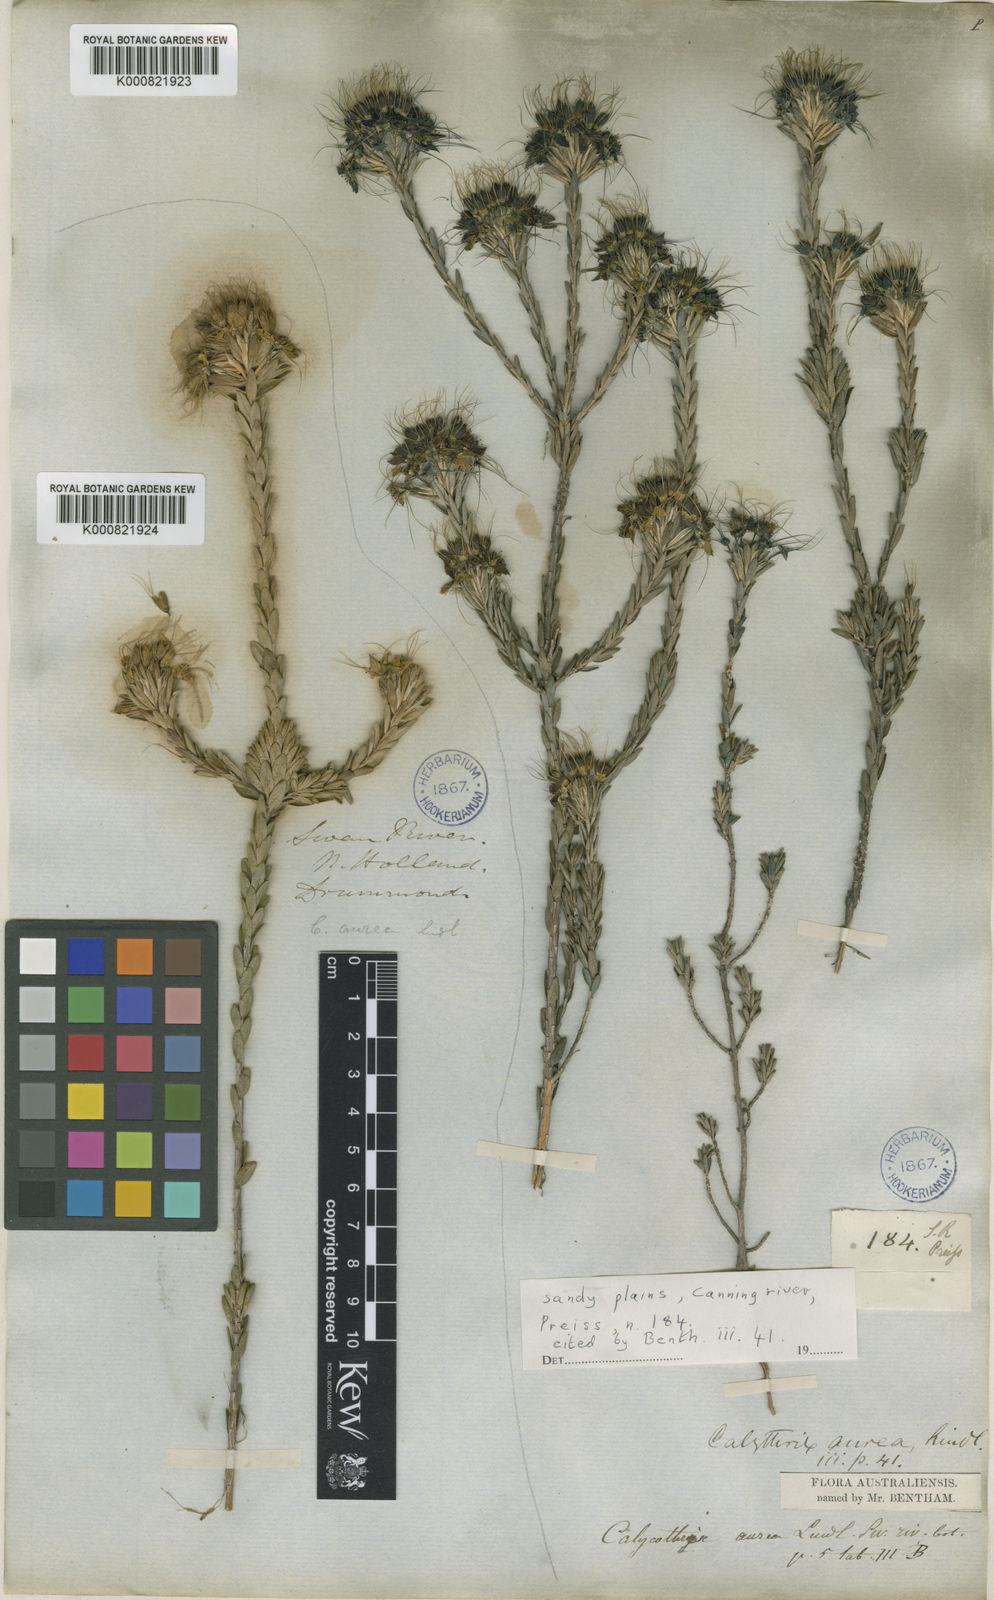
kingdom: Plantae
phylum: Tracheophyta
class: Magnoliopsida
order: Myrtales
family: Myrtaceae
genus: Calytrix
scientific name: Calytrix aurea
